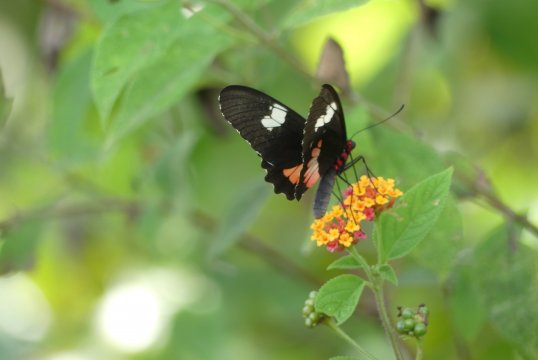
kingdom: Animalia
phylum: Arthropoda
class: Insecta
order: Lepidoptera
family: Papilionidae
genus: Parides
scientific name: Parides erithalion
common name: Variable Cattleheart
